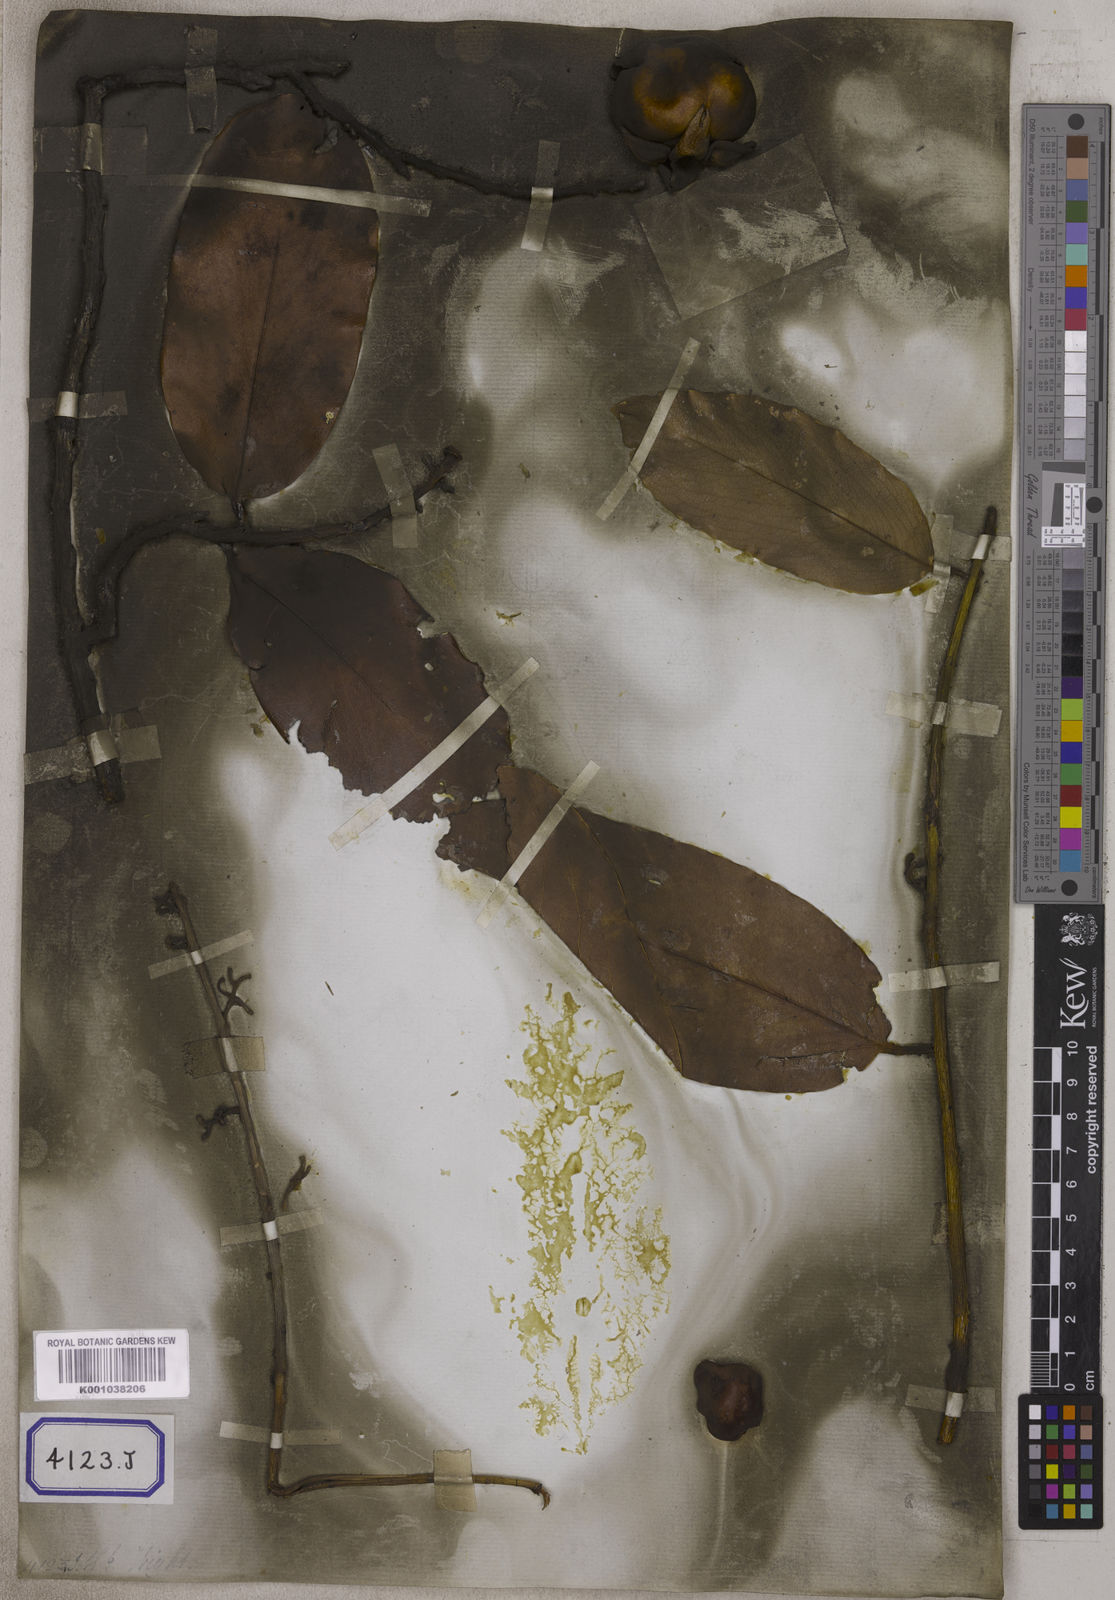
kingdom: Plantae
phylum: Tracheophyta
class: Magnoliopsida
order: Ericales
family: Ebenaceae
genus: Diospyros
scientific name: Diospyros malabarica
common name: Mountain ebony
